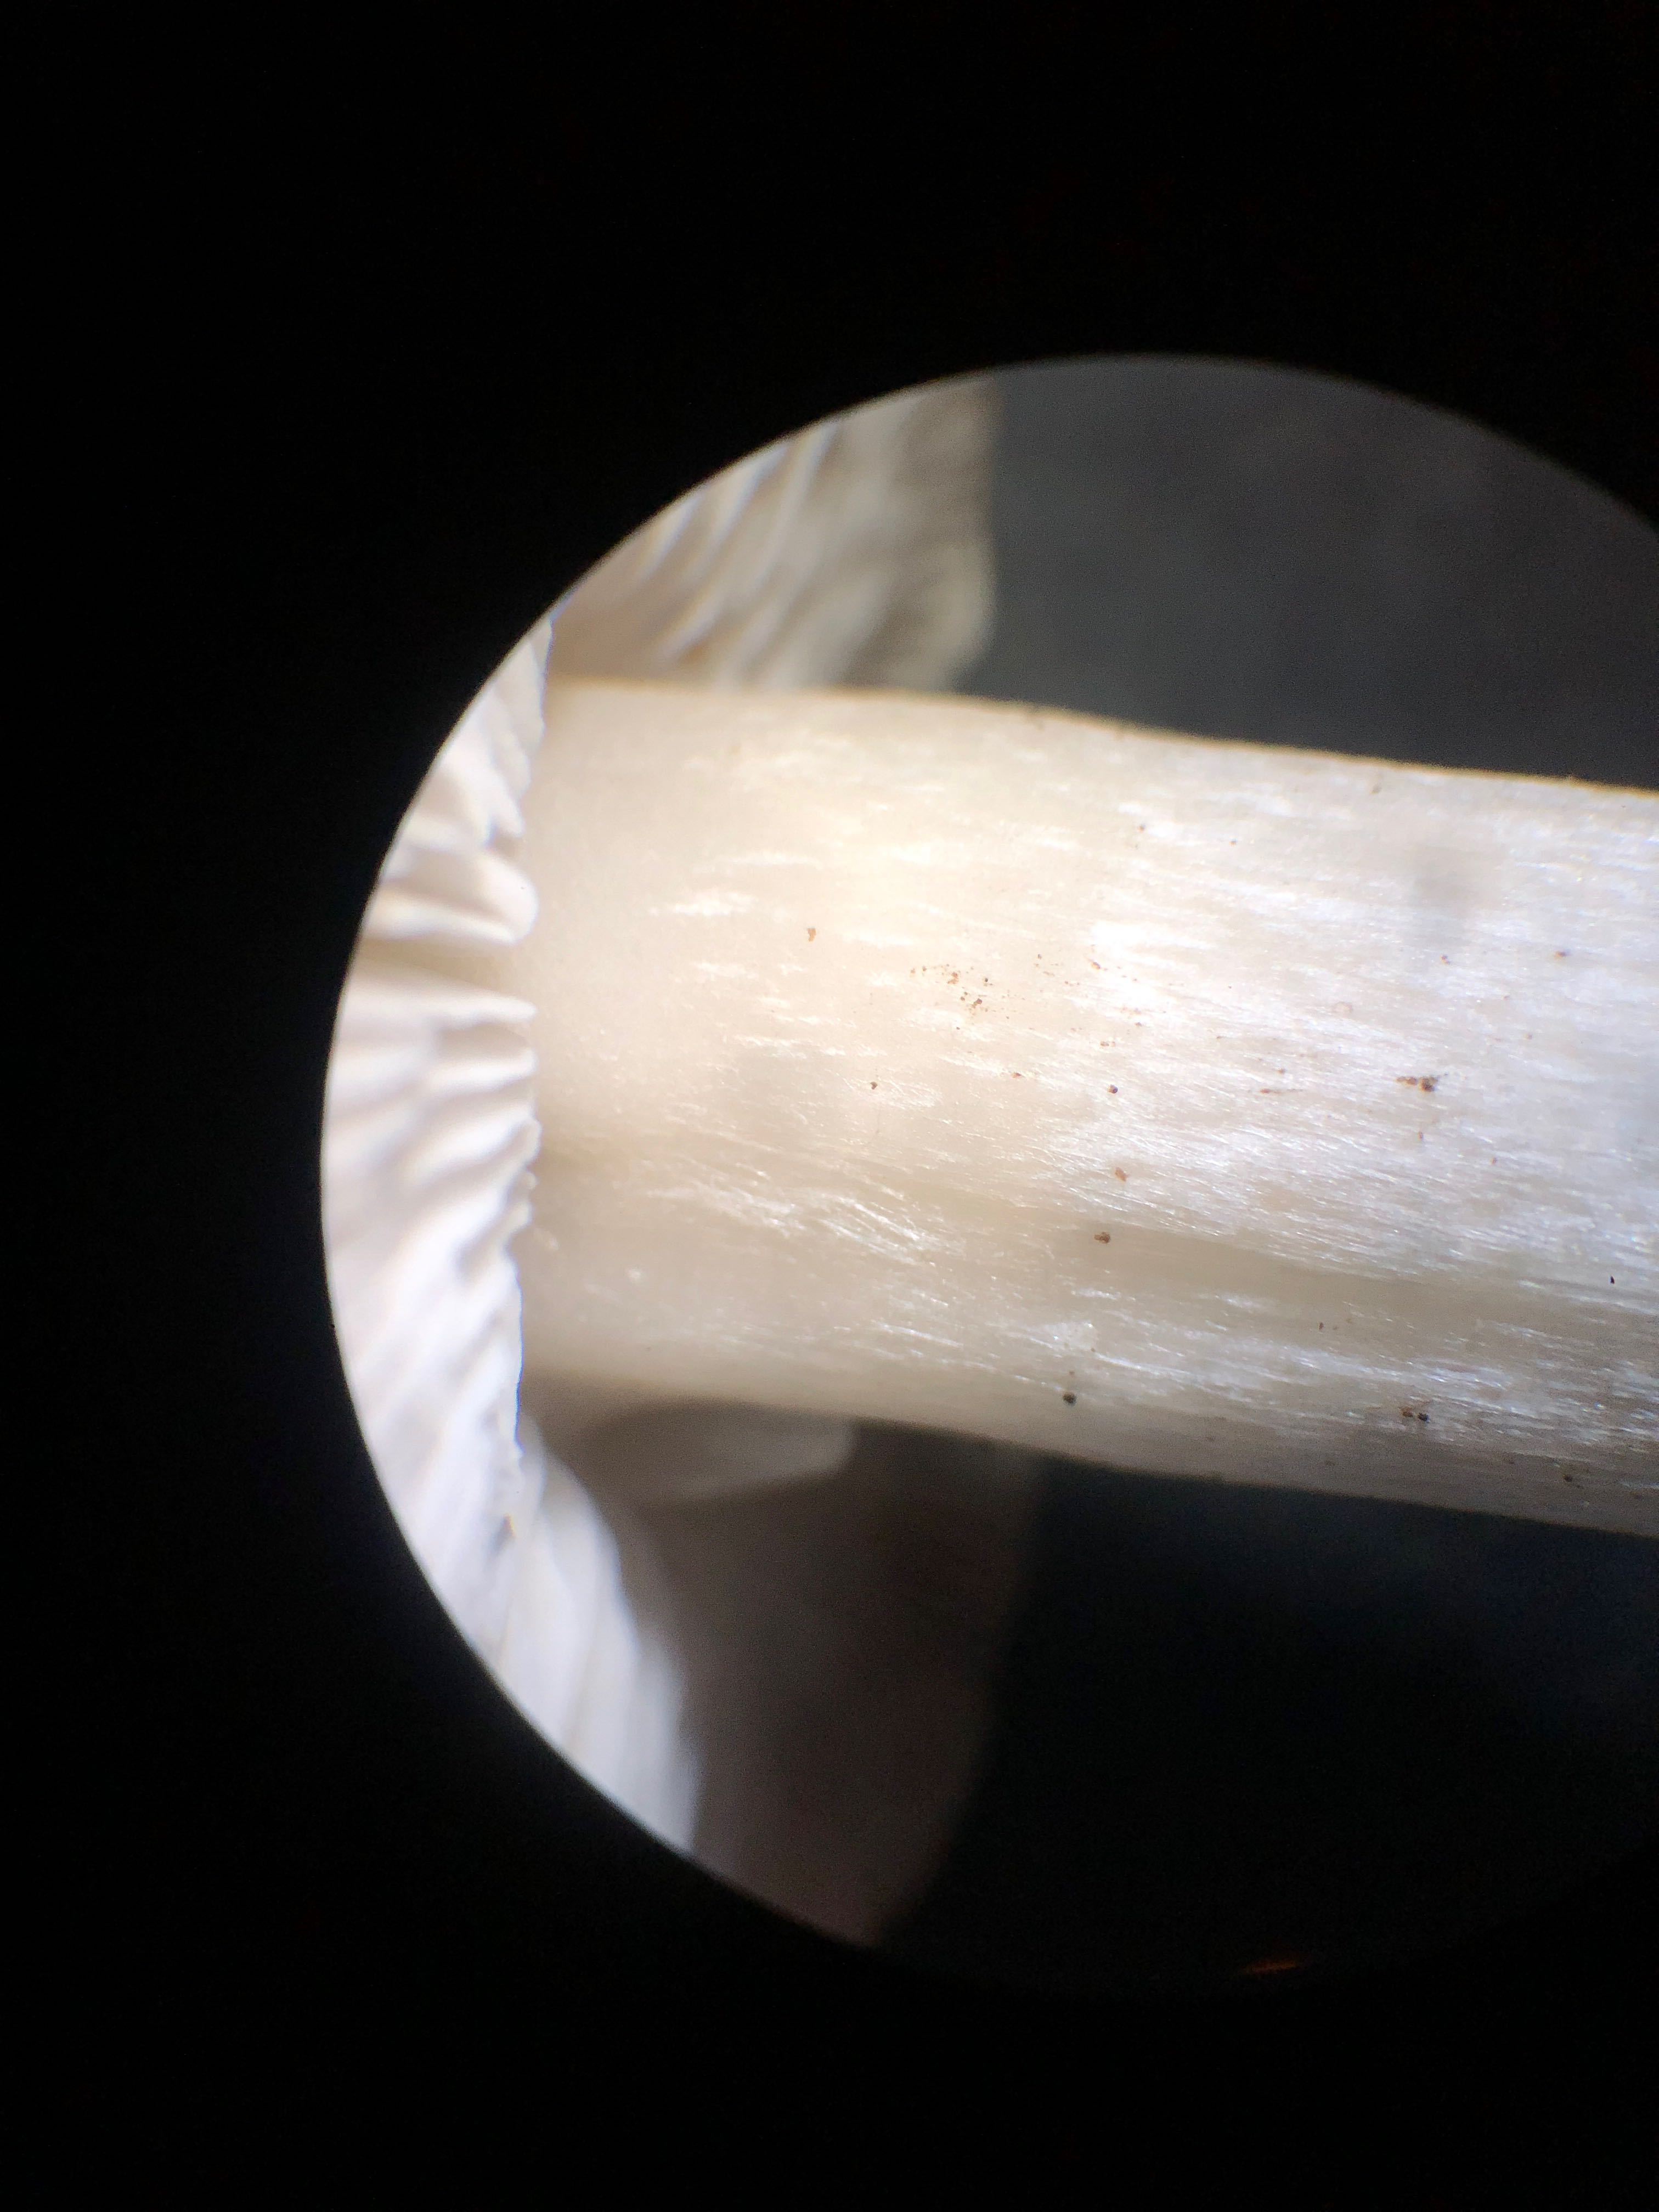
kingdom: Fungi
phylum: Basidiomycota
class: Agaricomycetes
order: Agaricales
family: Tricholomataceae
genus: Tricholoma
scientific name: Tricholoma argyraceum
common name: spids ridderhat
